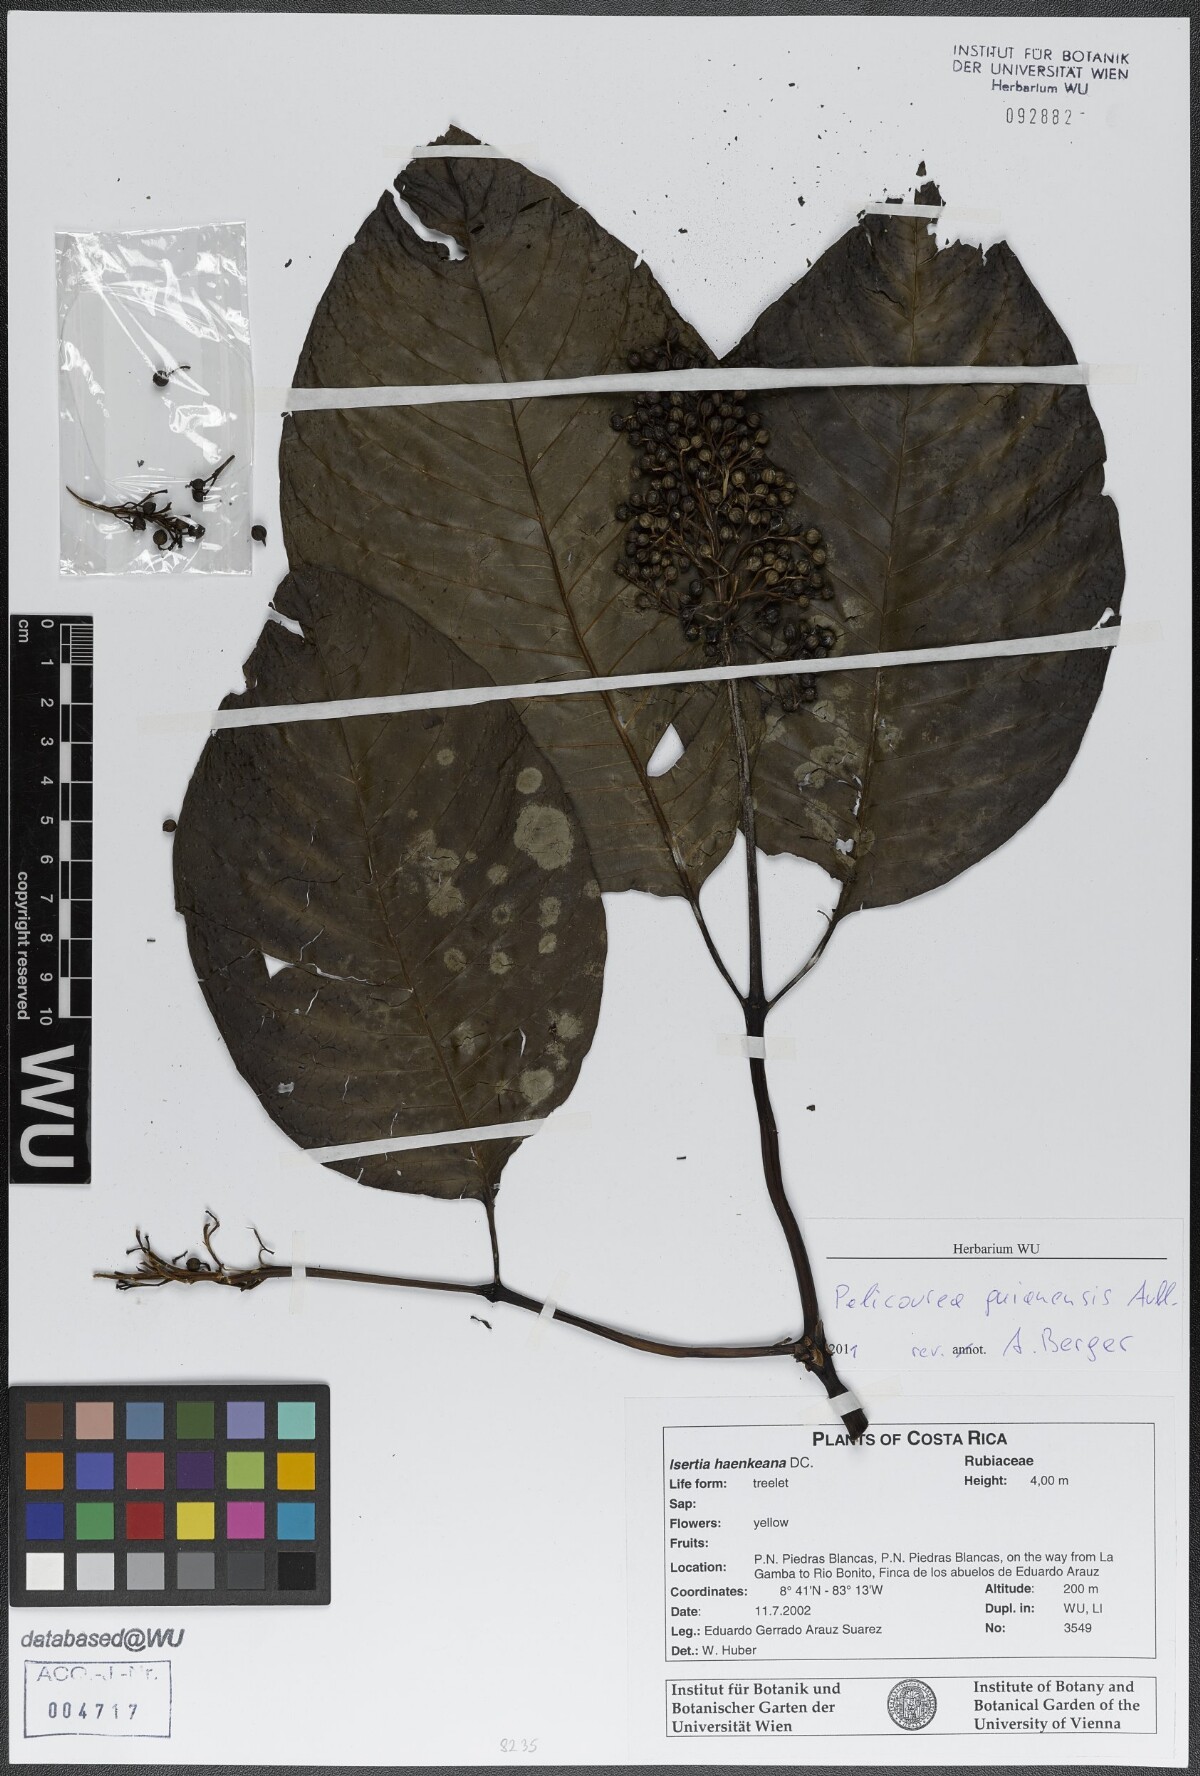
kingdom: Plantae
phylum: Tracheophyta
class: Magnoliopsida
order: Gentianales
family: Rubiaceae
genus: Palicourea
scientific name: Palicourea guianensis
